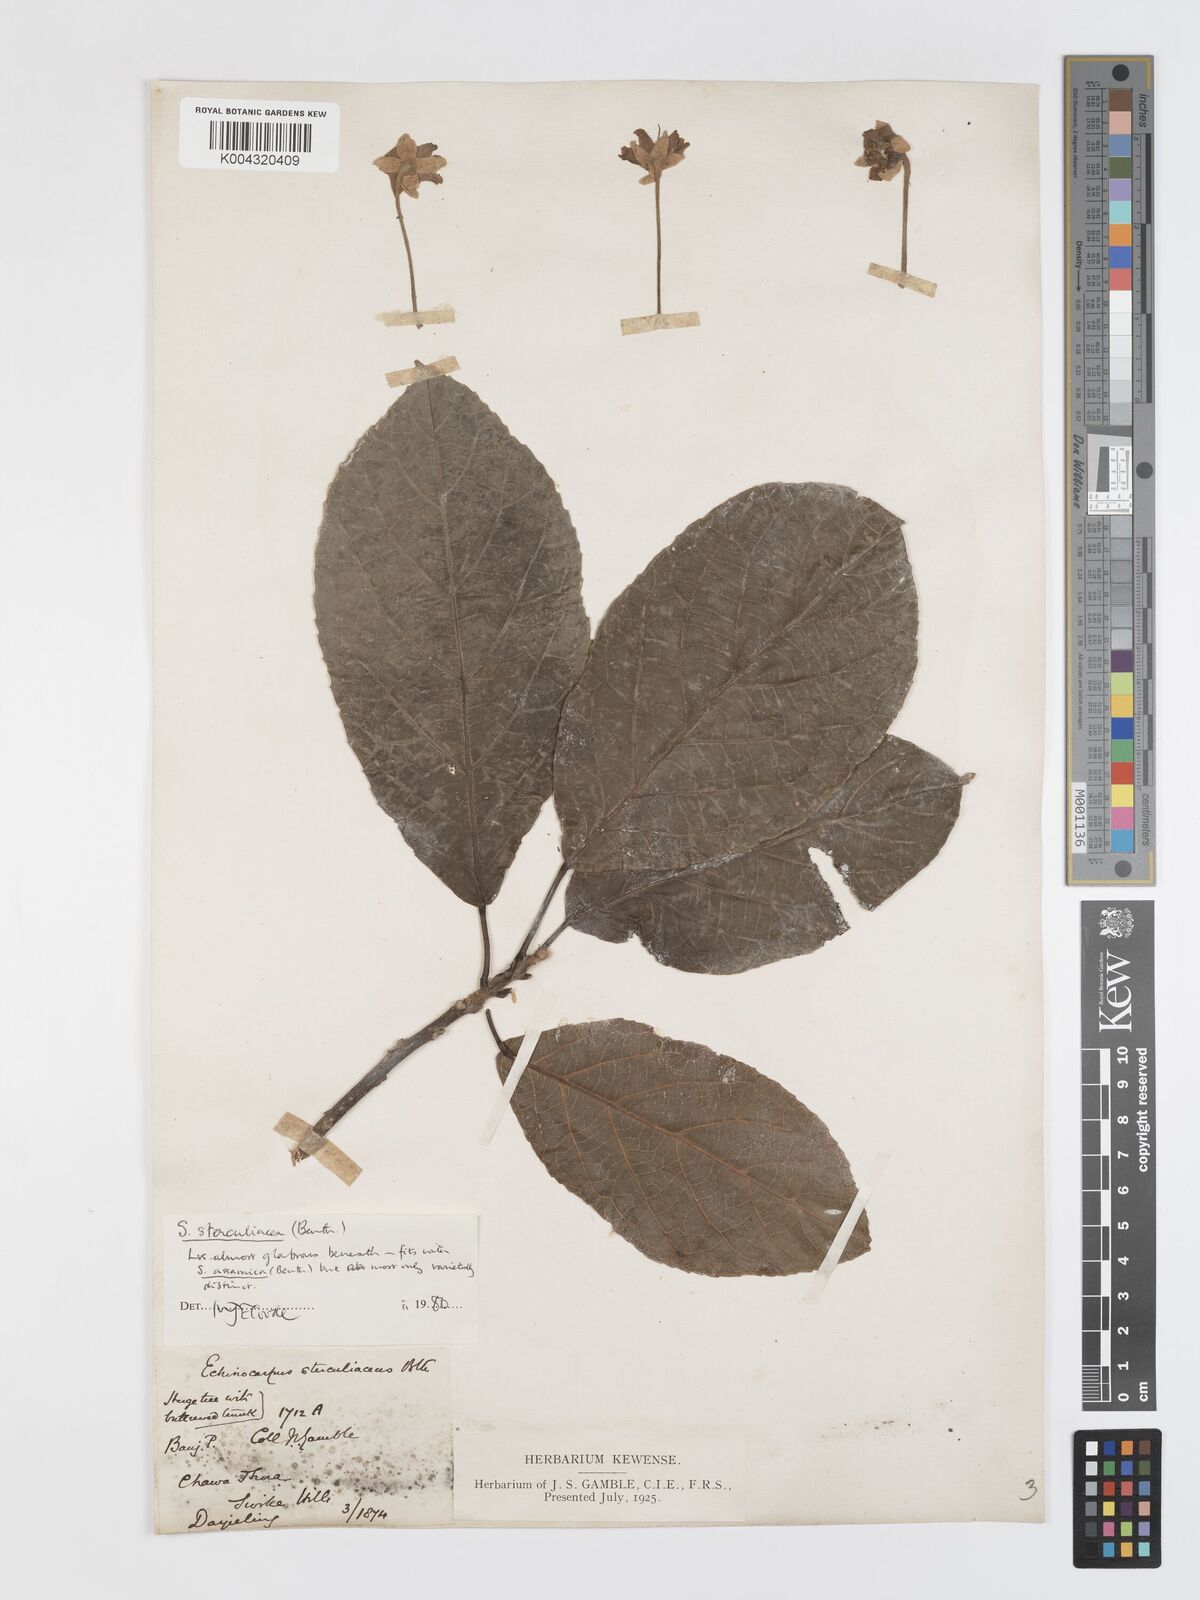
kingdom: Plantae
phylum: Tracheophyta
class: Magnoliopsida
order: Oxalidales
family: Elaeocarpaceae
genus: Sloanea
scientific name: Sloanea sterculiacea
